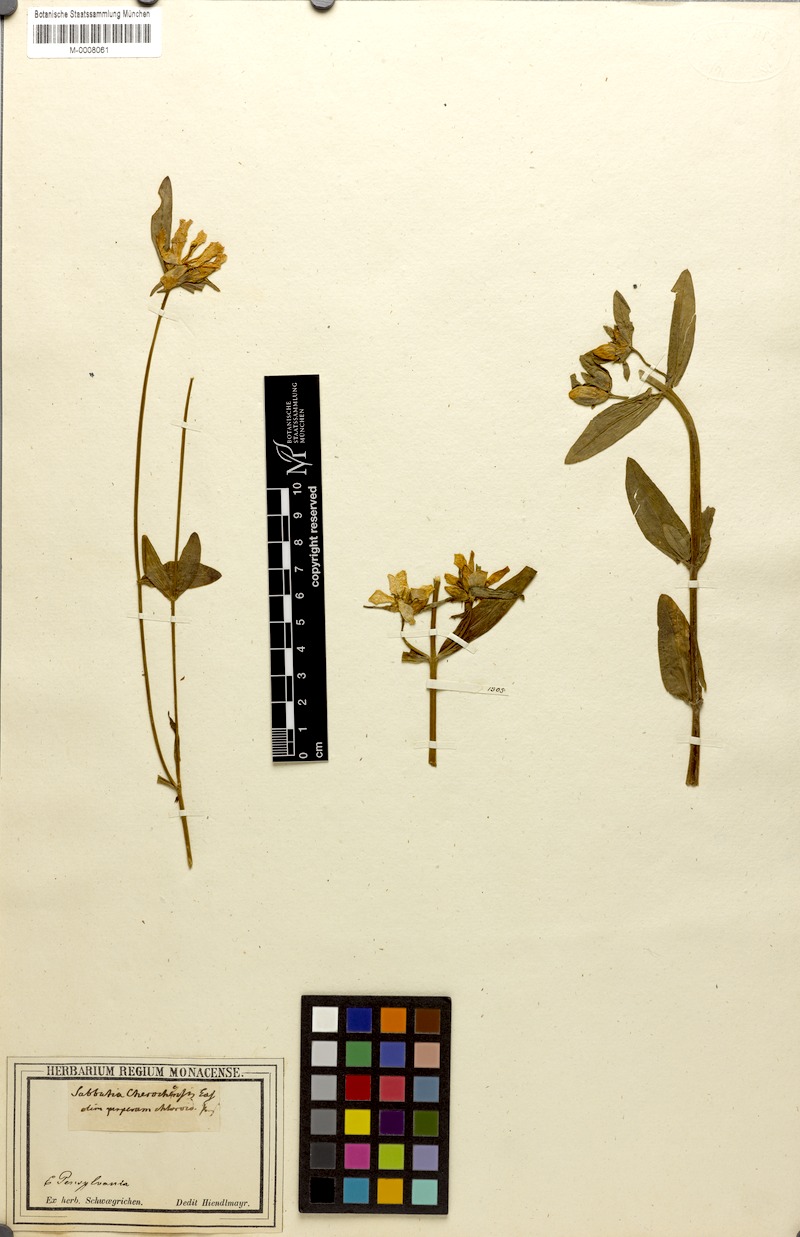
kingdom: Plantae
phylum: Tracheophyta
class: Magnoliopsida
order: Gentianales
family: Gentianaceae
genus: Sabatia
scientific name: Sabatia dodecandra
